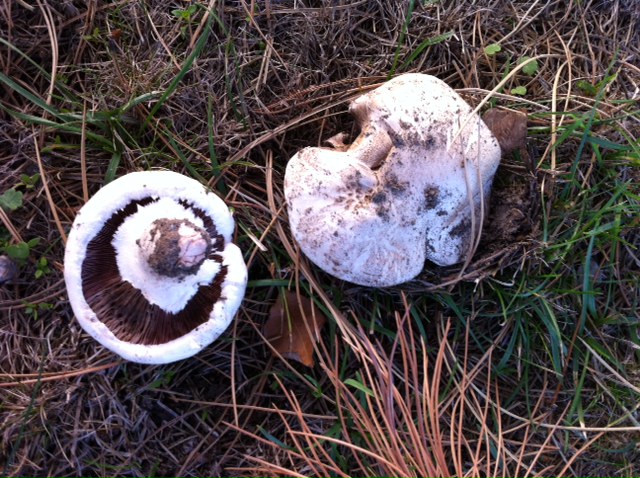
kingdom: Fungi
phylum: Basidiomycota
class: Agaricomycetes
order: Agaricales
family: Agaricaceae
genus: Agaricus
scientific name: Agaricus bernardii
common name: strandengs-champignon
